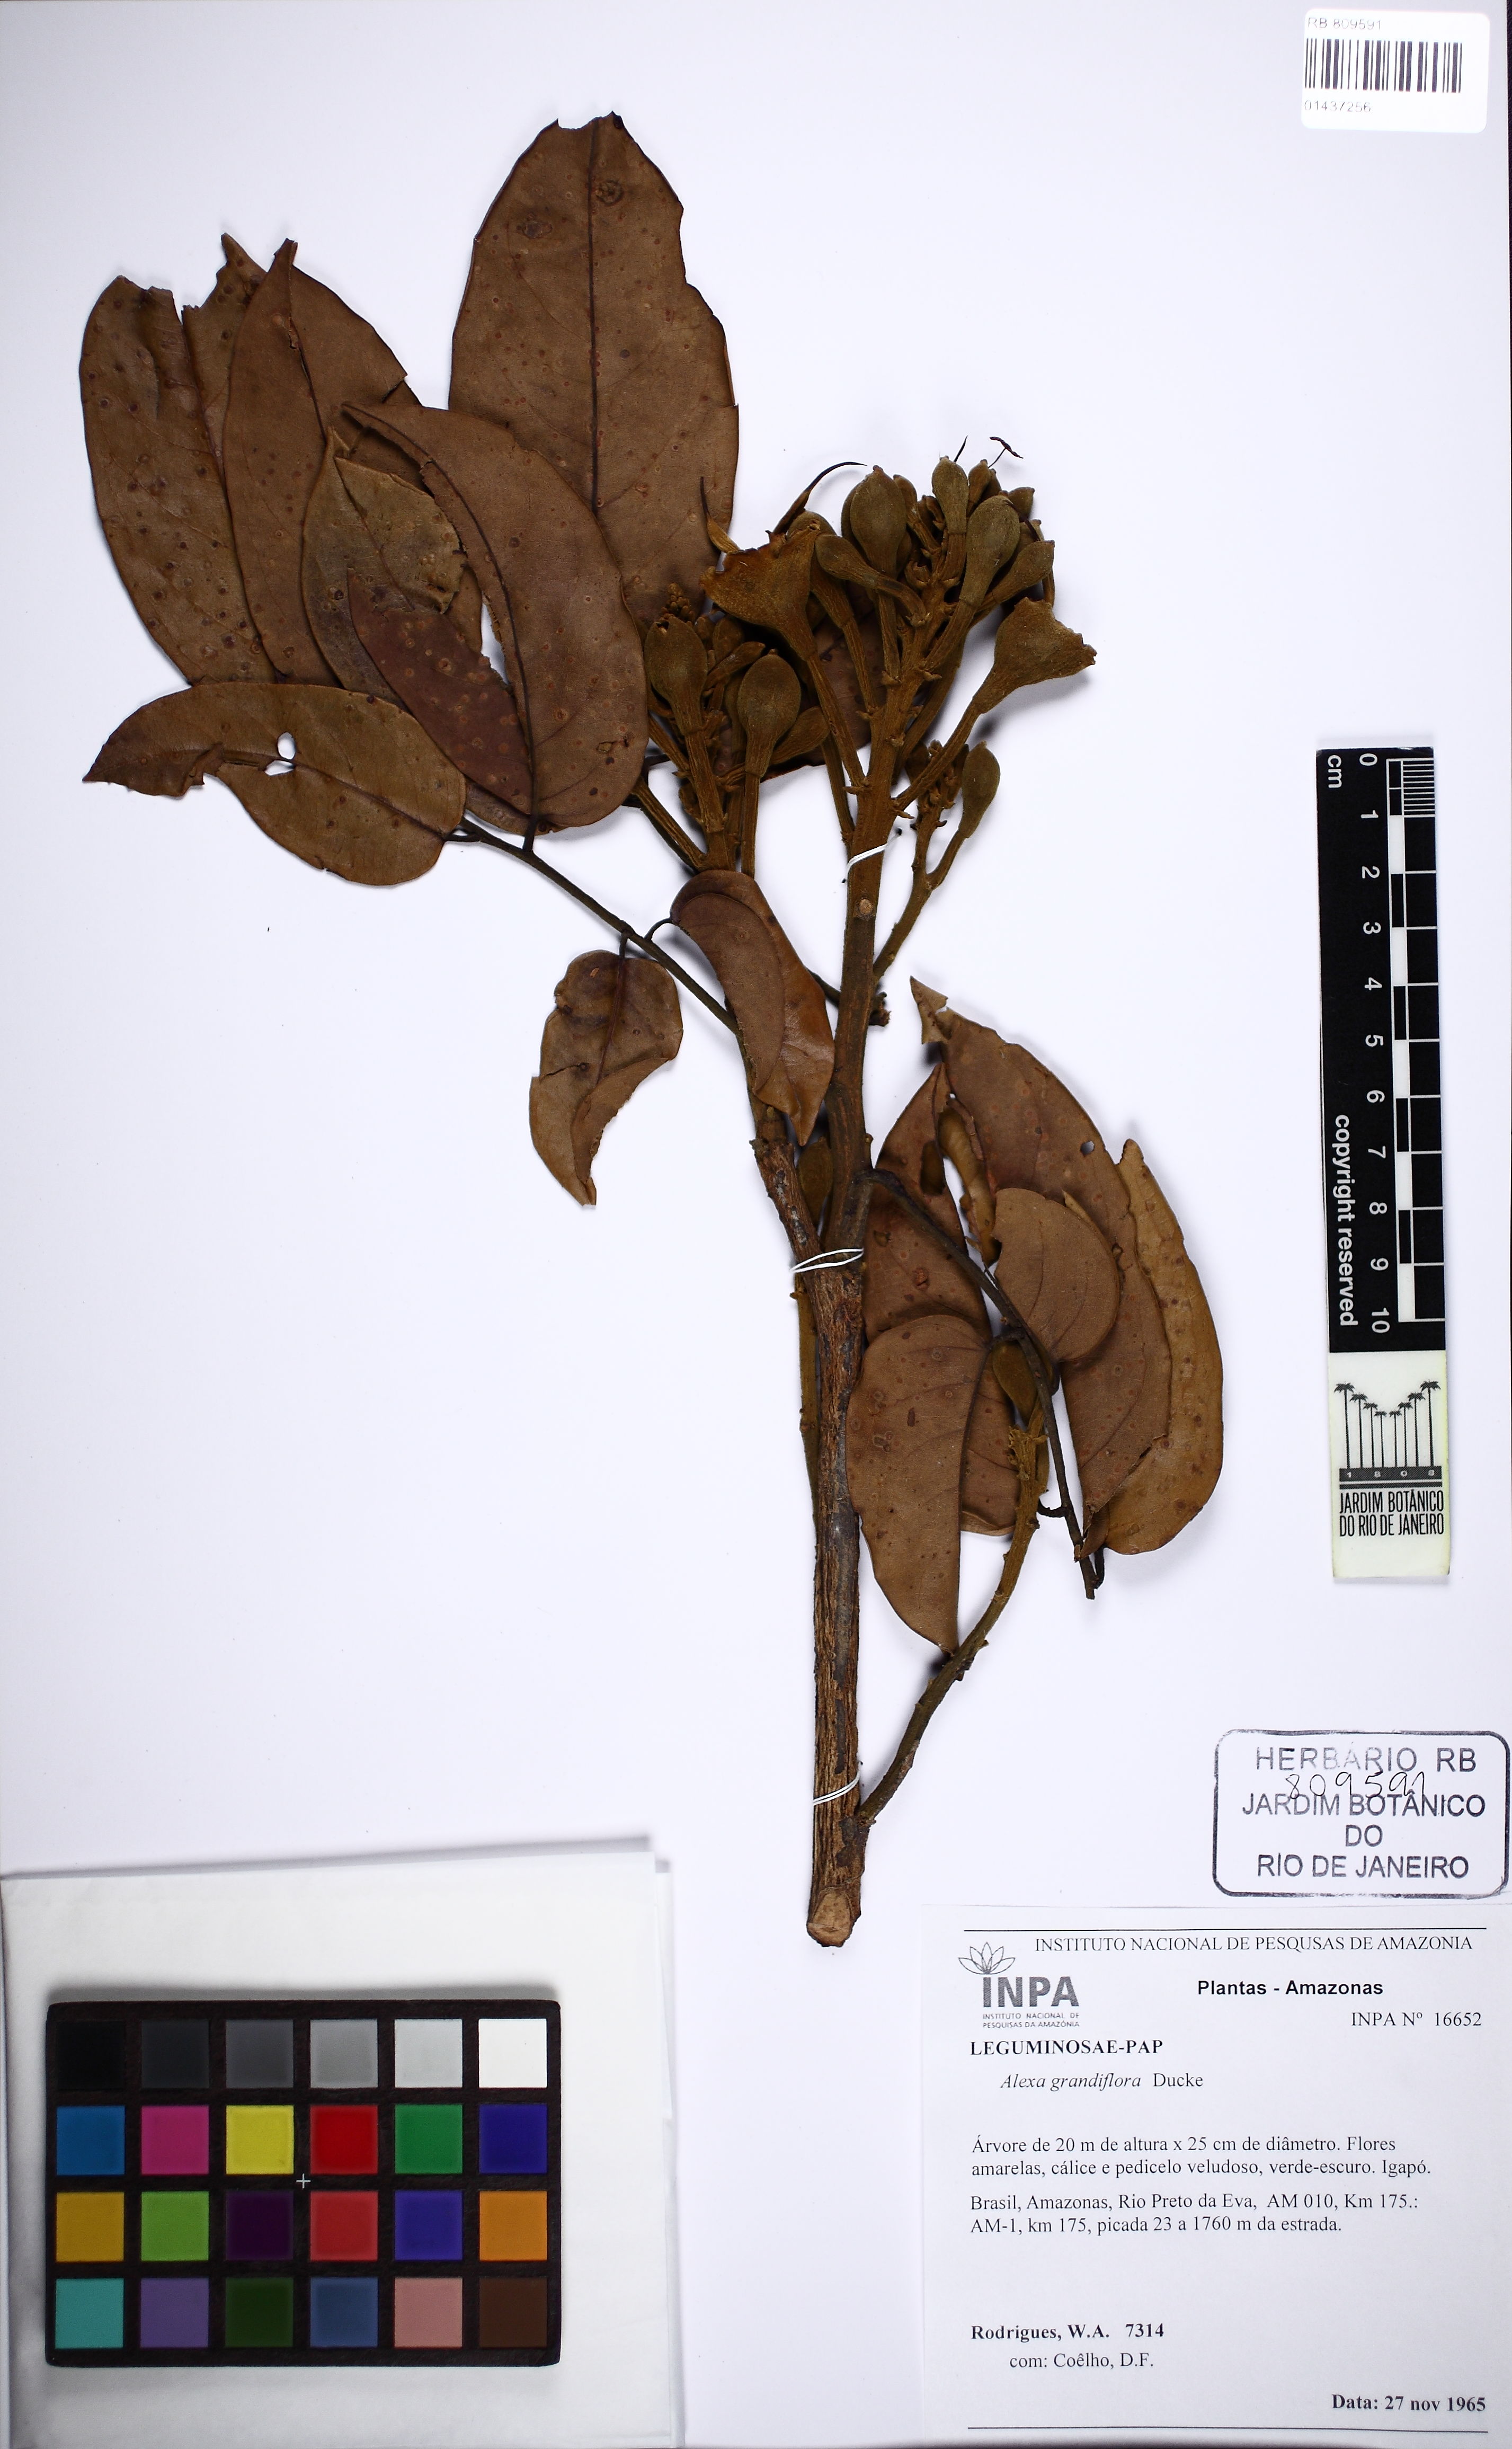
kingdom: Plantae
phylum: Tracheophyta
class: Magnoliopsida
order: Fabales
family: Fabaceae
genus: Alexa
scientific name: Alexa grandiflora
